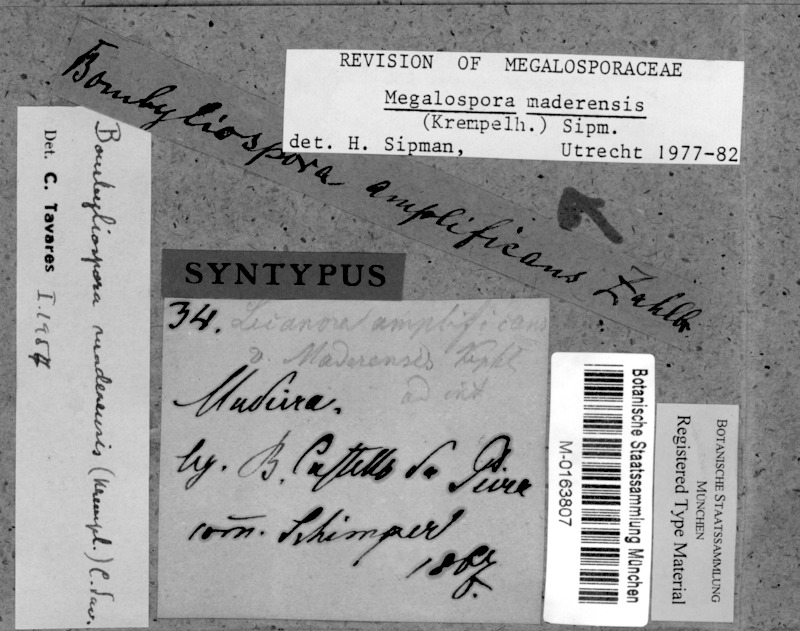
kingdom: Fungi
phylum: Ascomycota
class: Lecanoromycetes
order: Teloschistales
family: Megalosporaceae
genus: Megalospora
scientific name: Megalospora maderensis
